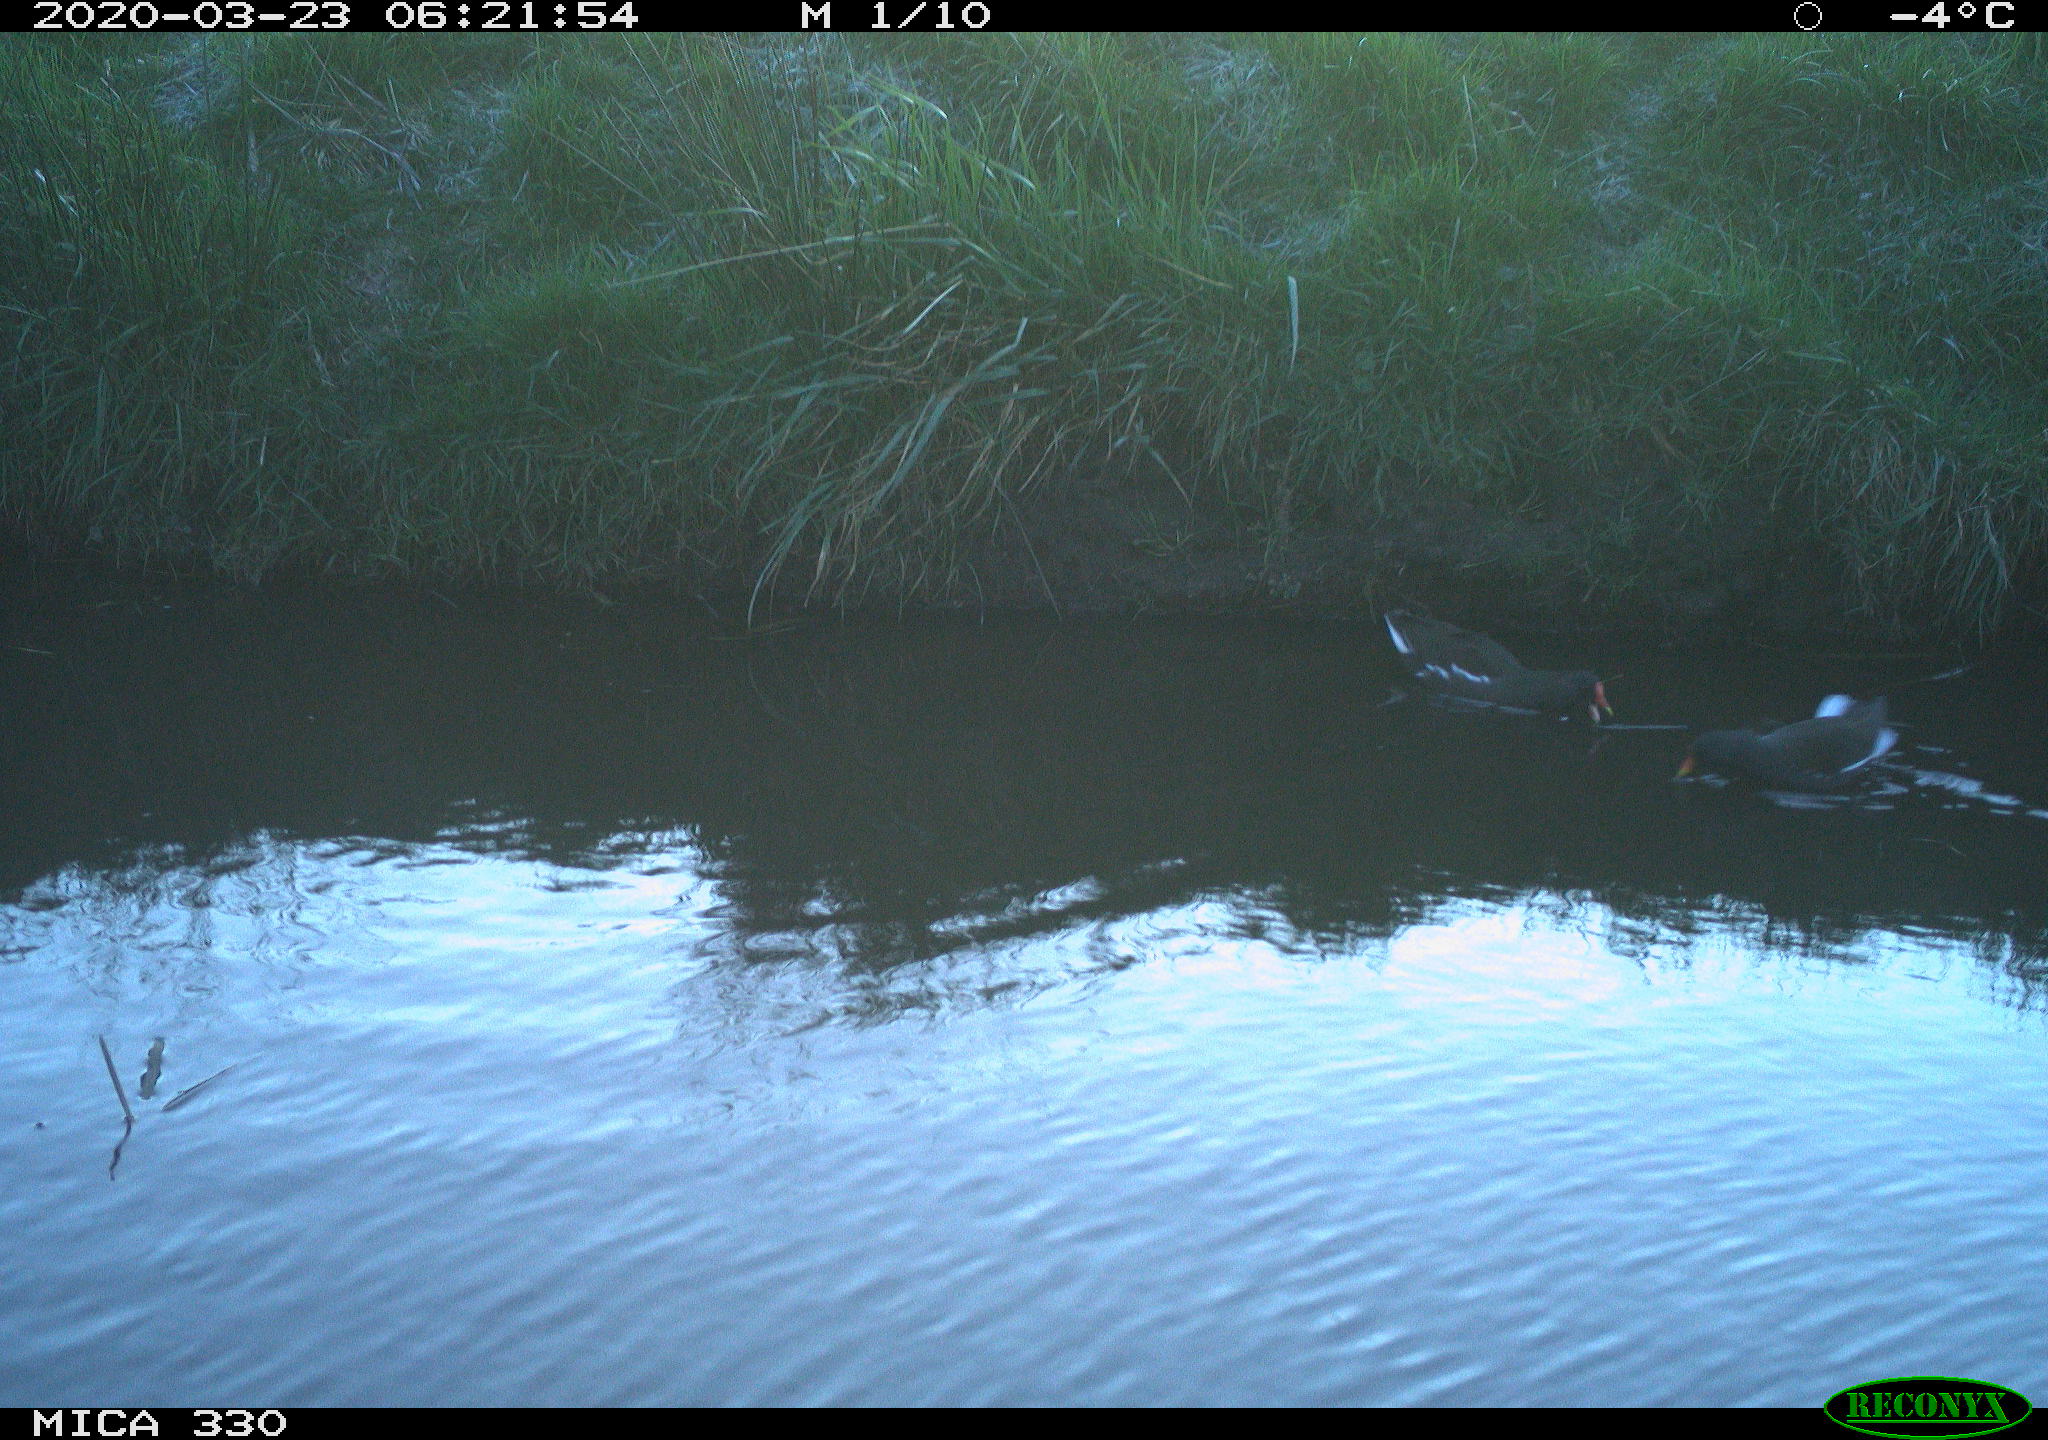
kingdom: Animalia
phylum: Chordata
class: Aves
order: Gruiformes
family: Rallidae
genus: Gallinula
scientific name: Gallinula chloropus
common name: Common moorhen
